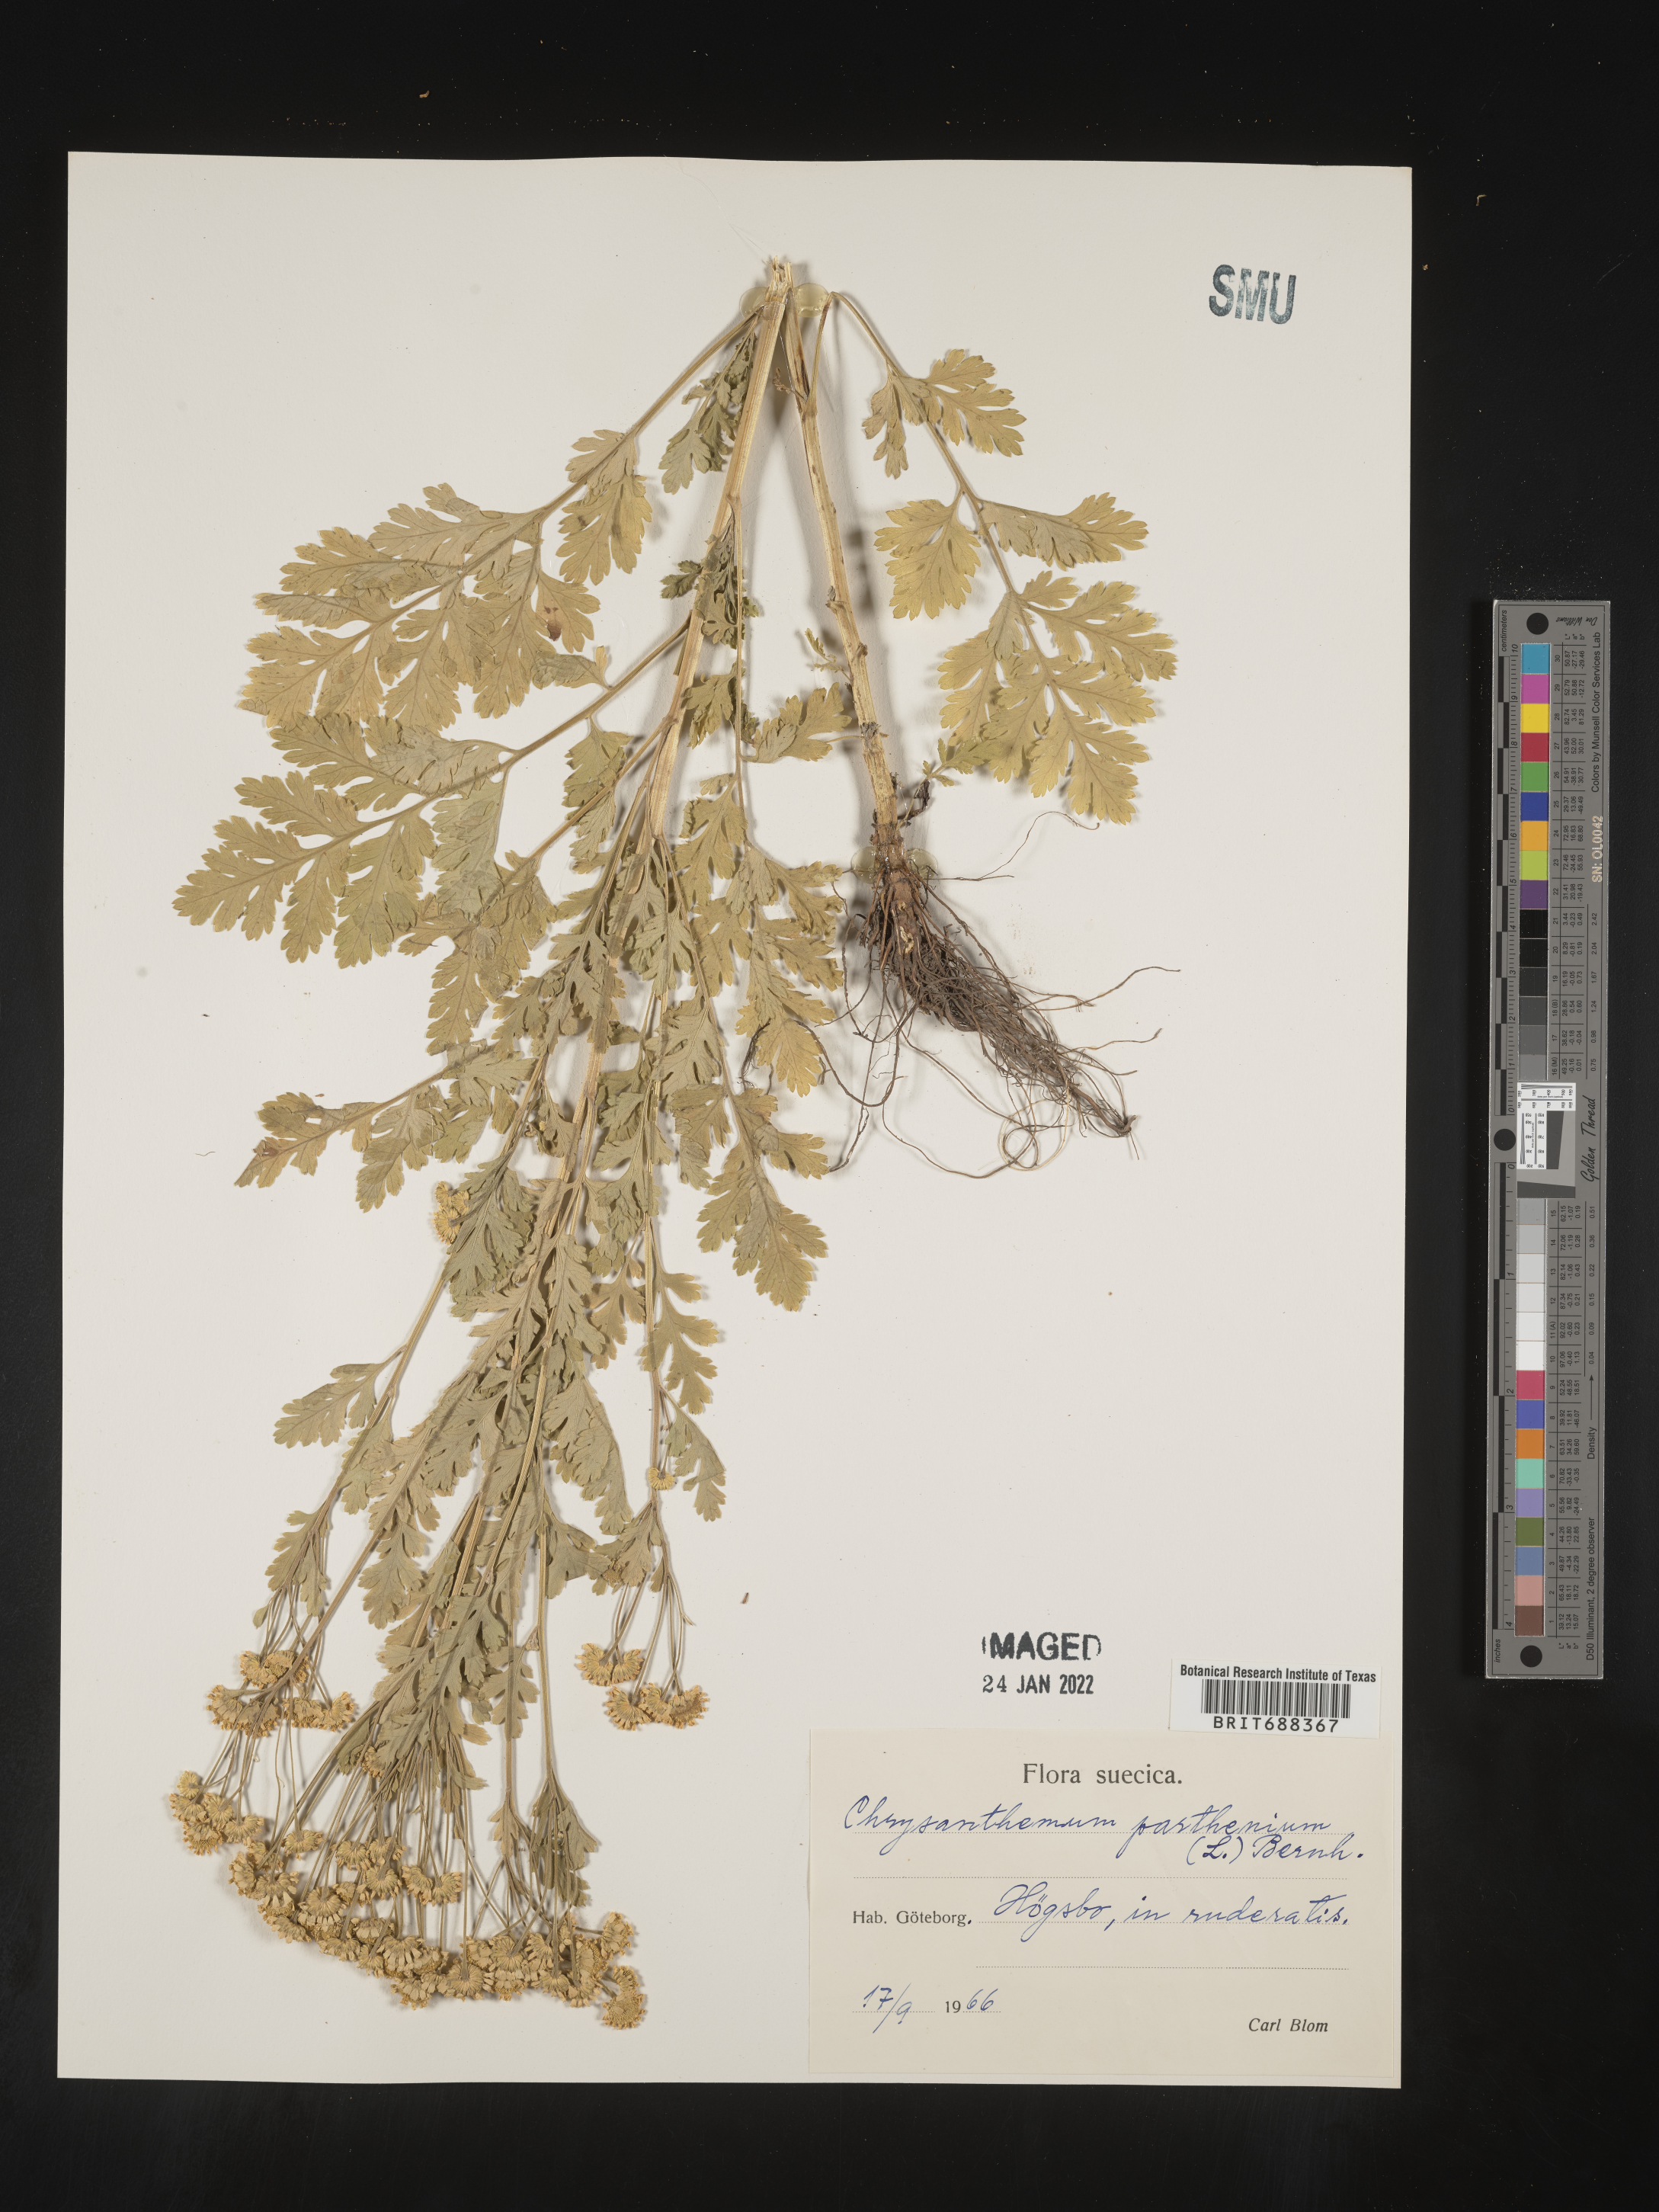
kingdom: Plantae
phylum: Tracheophyta
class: Magnoliopsida
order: Asterales
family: Asteraceae
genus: Chrysanthemum
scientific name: Chrysanthemum
